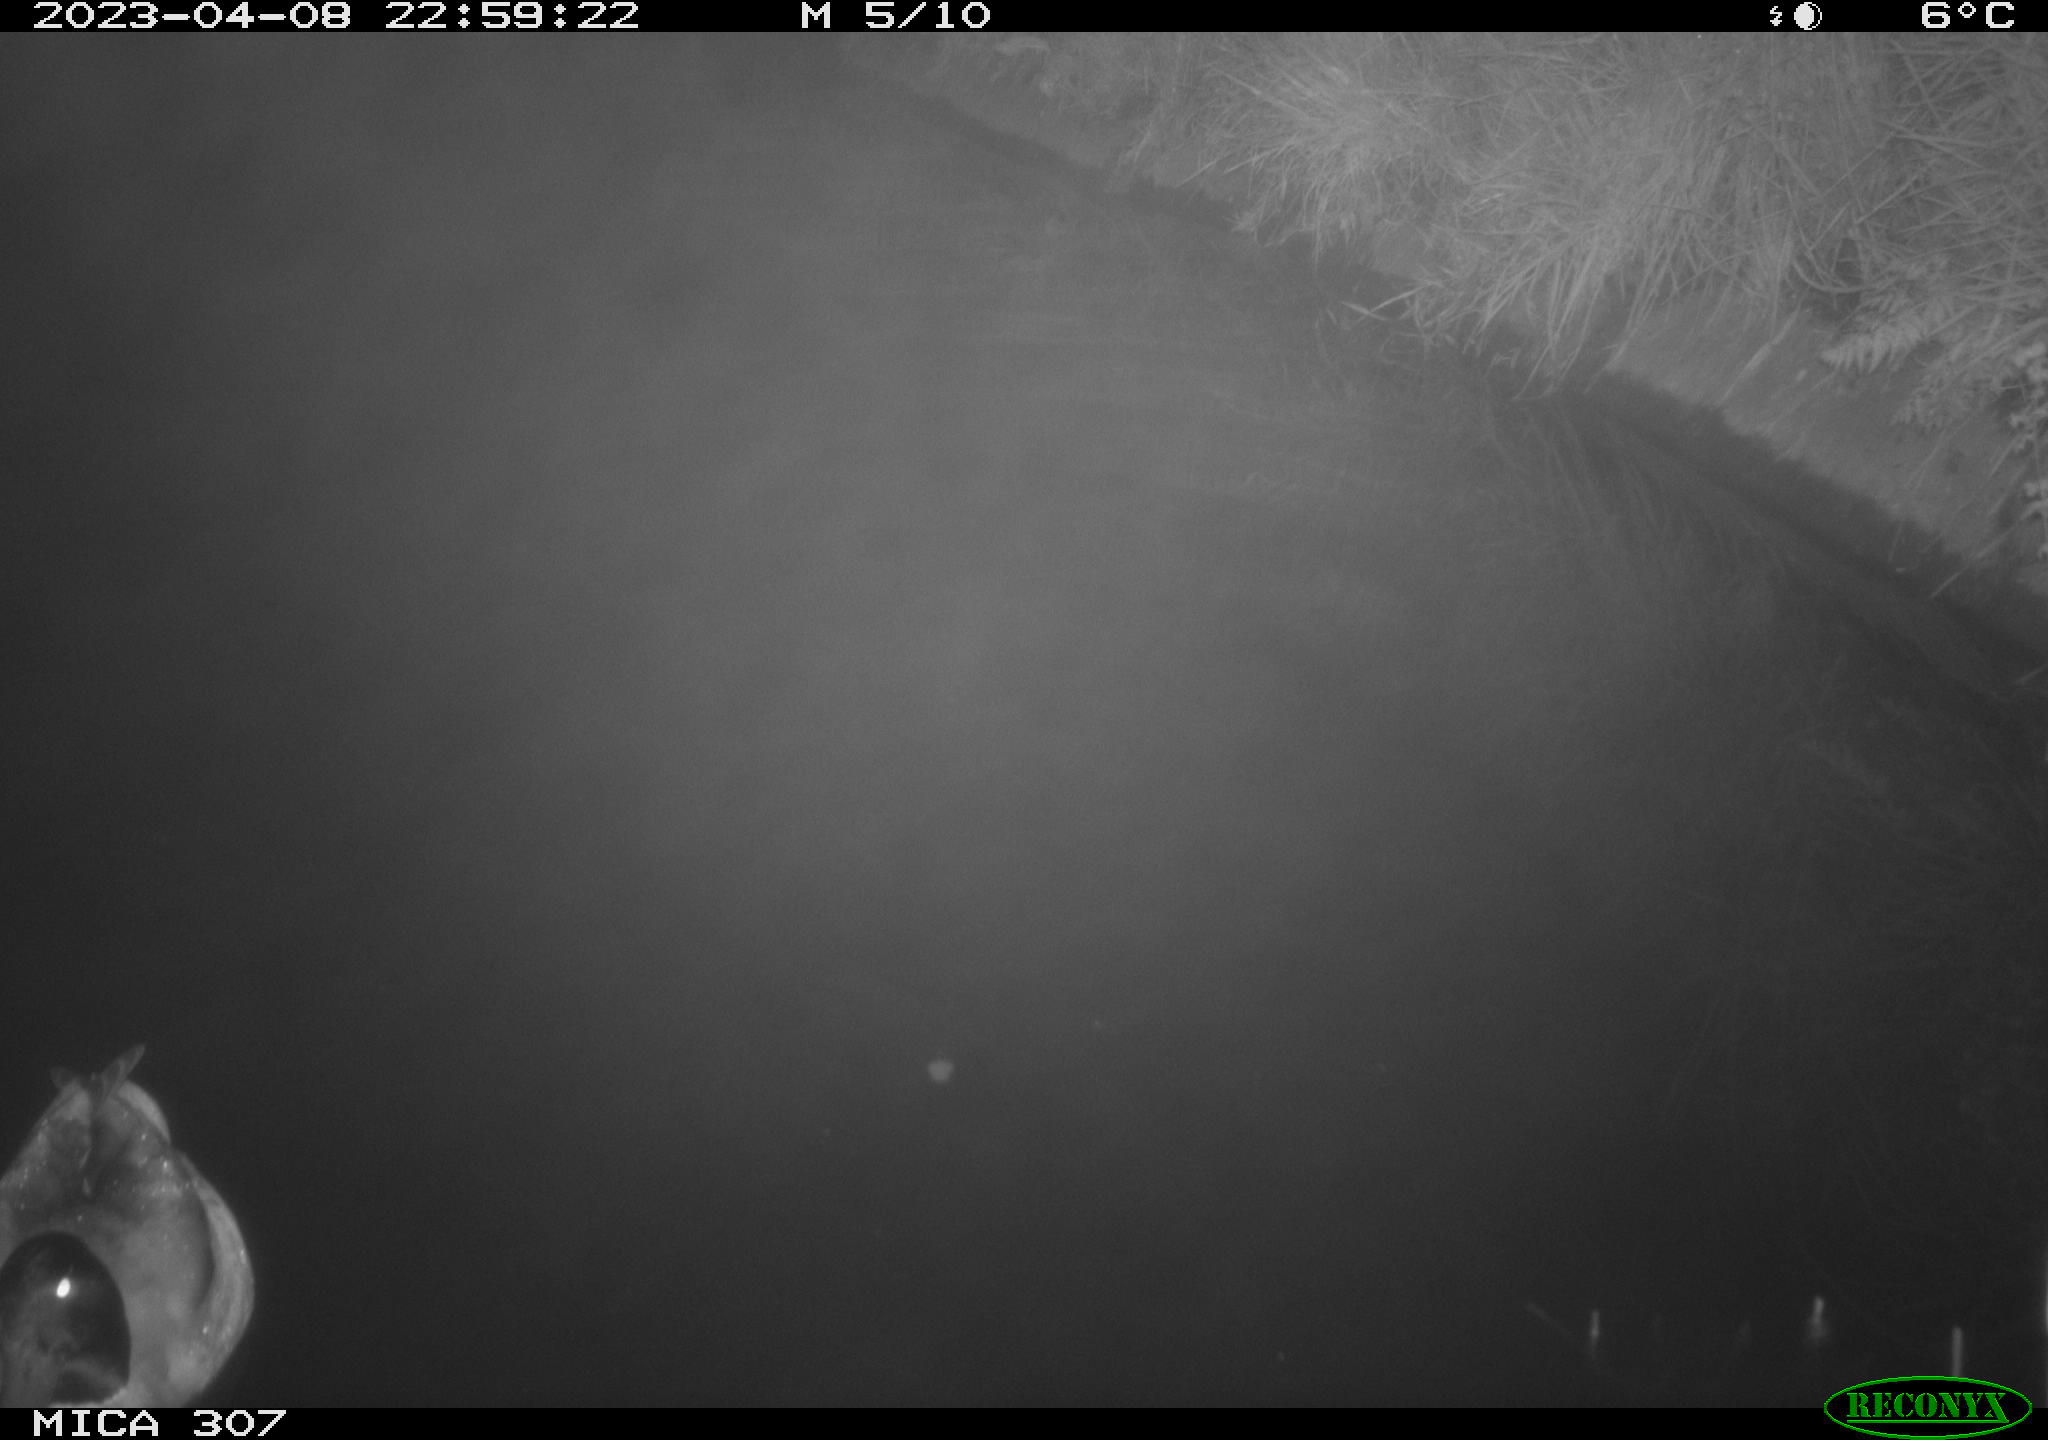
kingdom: Animalia
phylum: Chordata
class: Aves
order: Anseriformes
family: Anatidae
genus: Anas
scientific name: Anas
